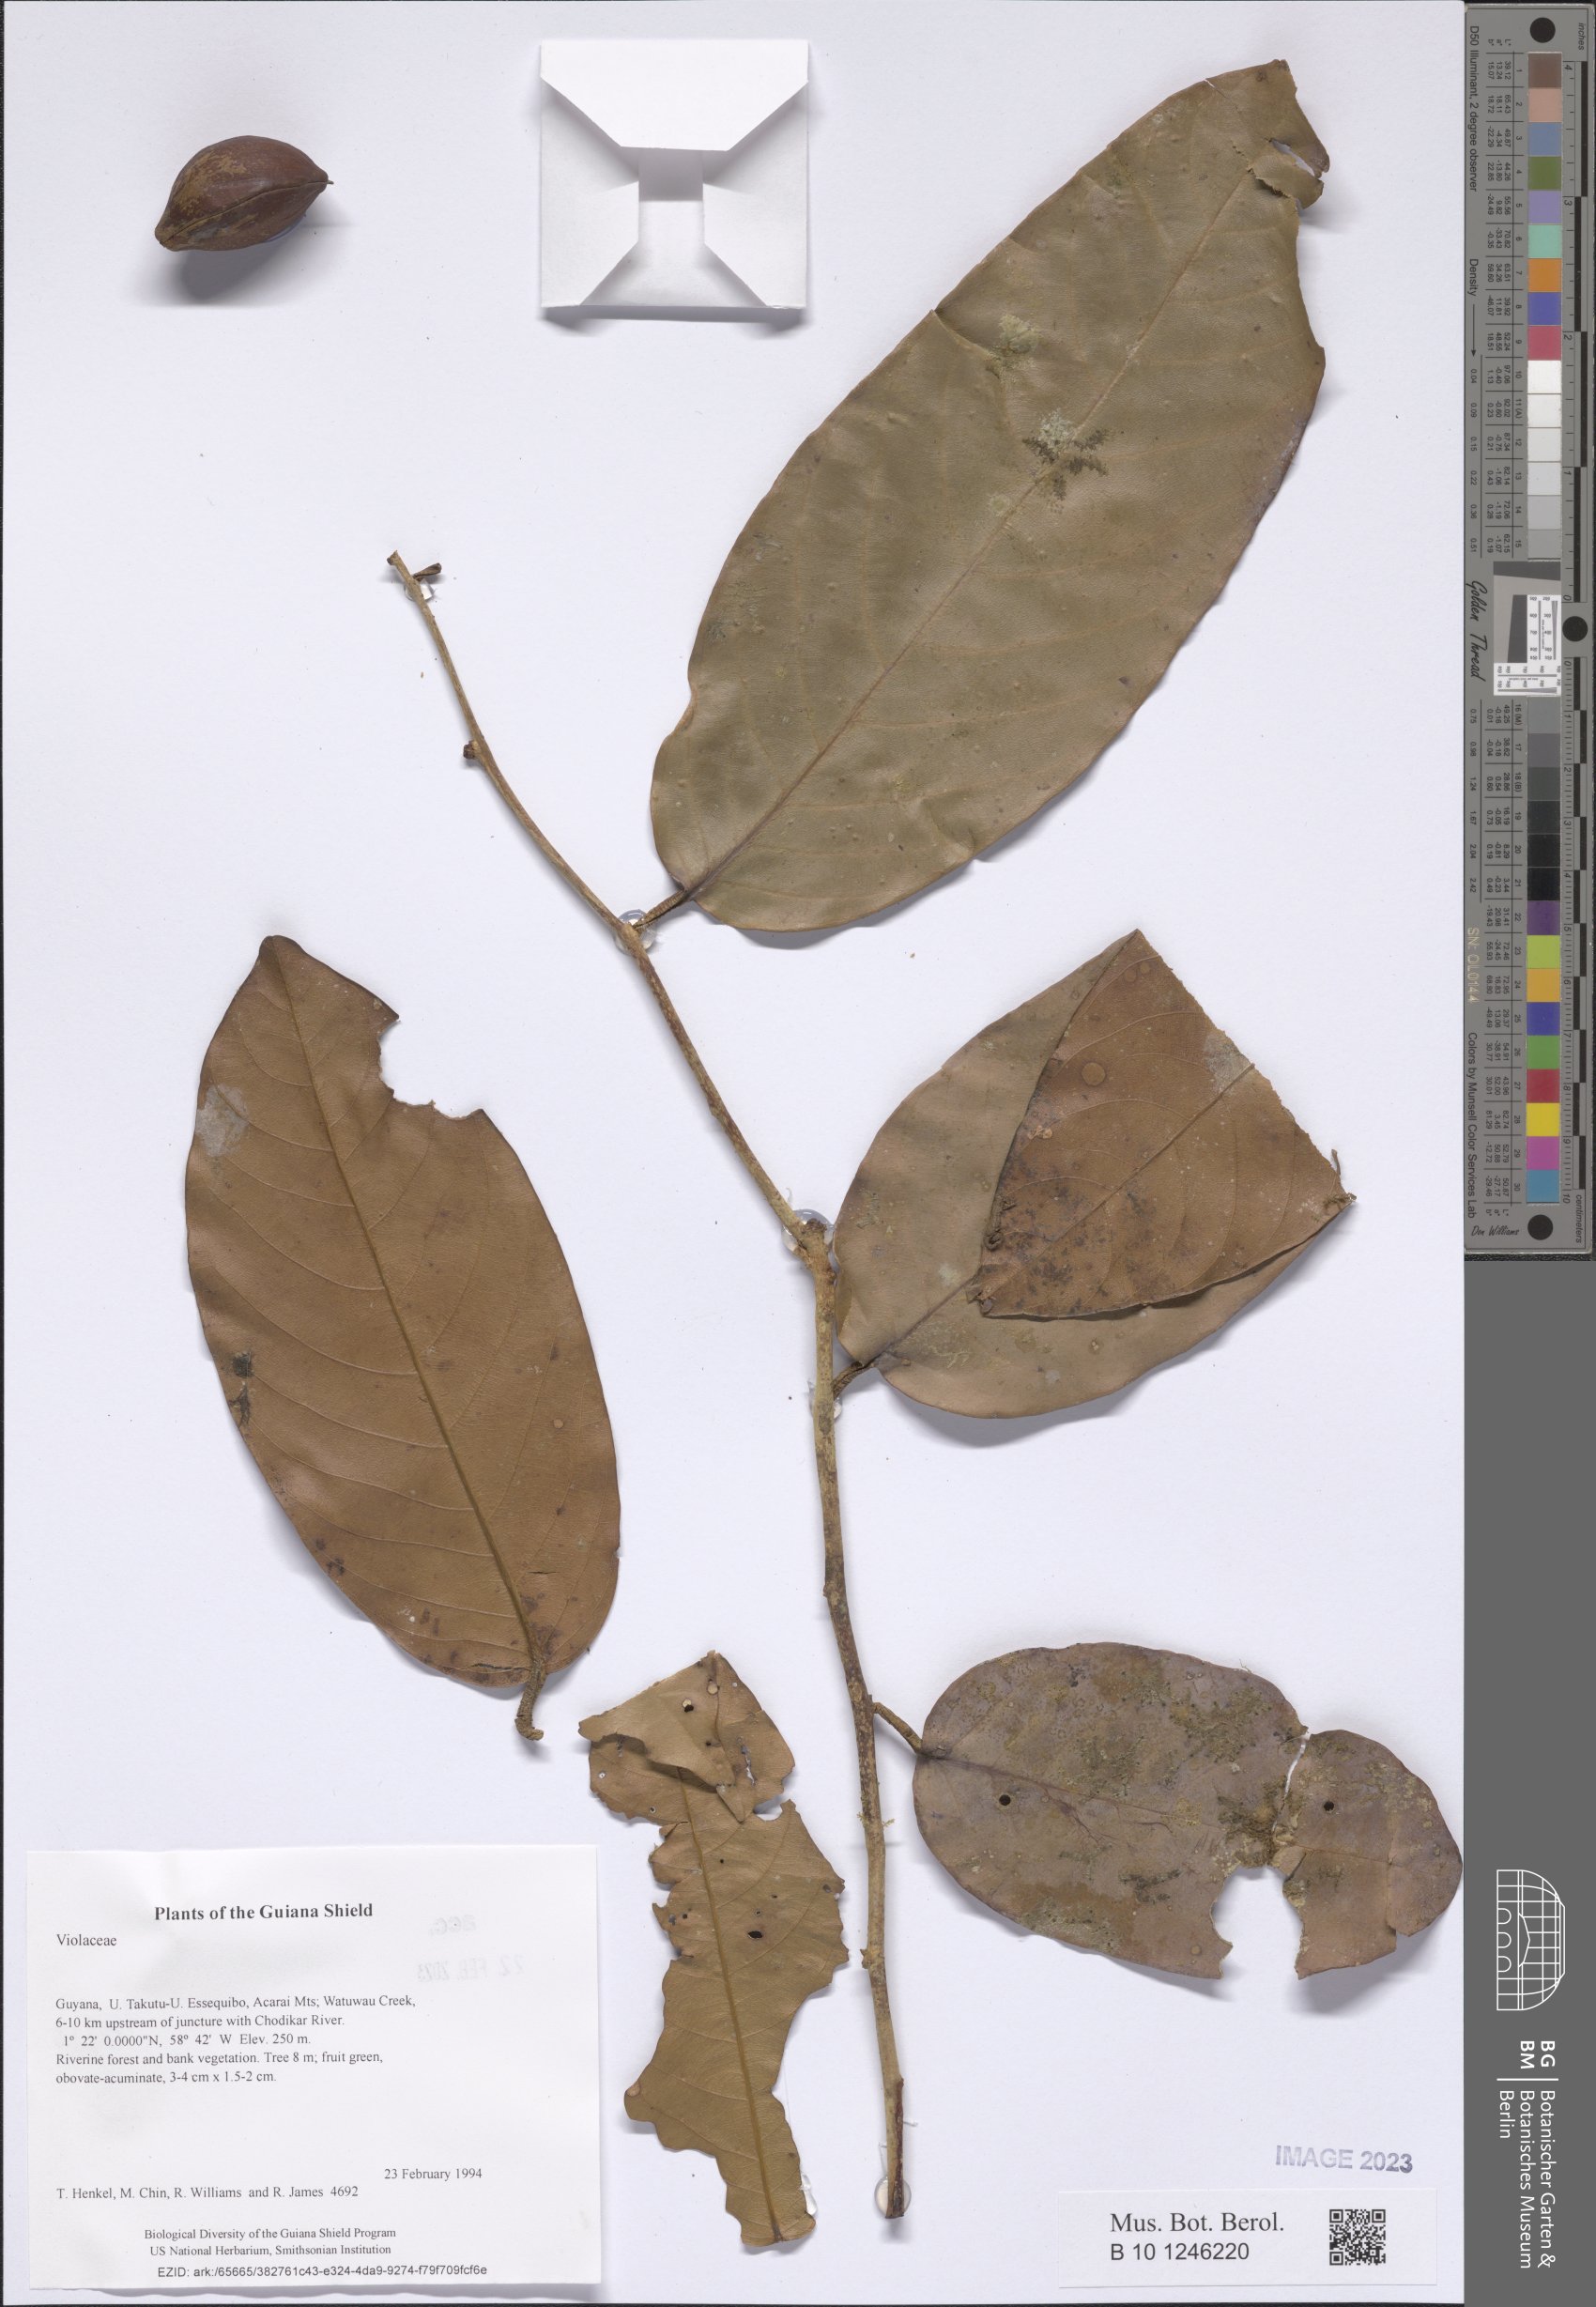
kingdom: Plantae
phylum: Tracheophyta
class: Magnoliopsida
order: Malpighiales
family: Violaceae
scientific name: Violaceae
